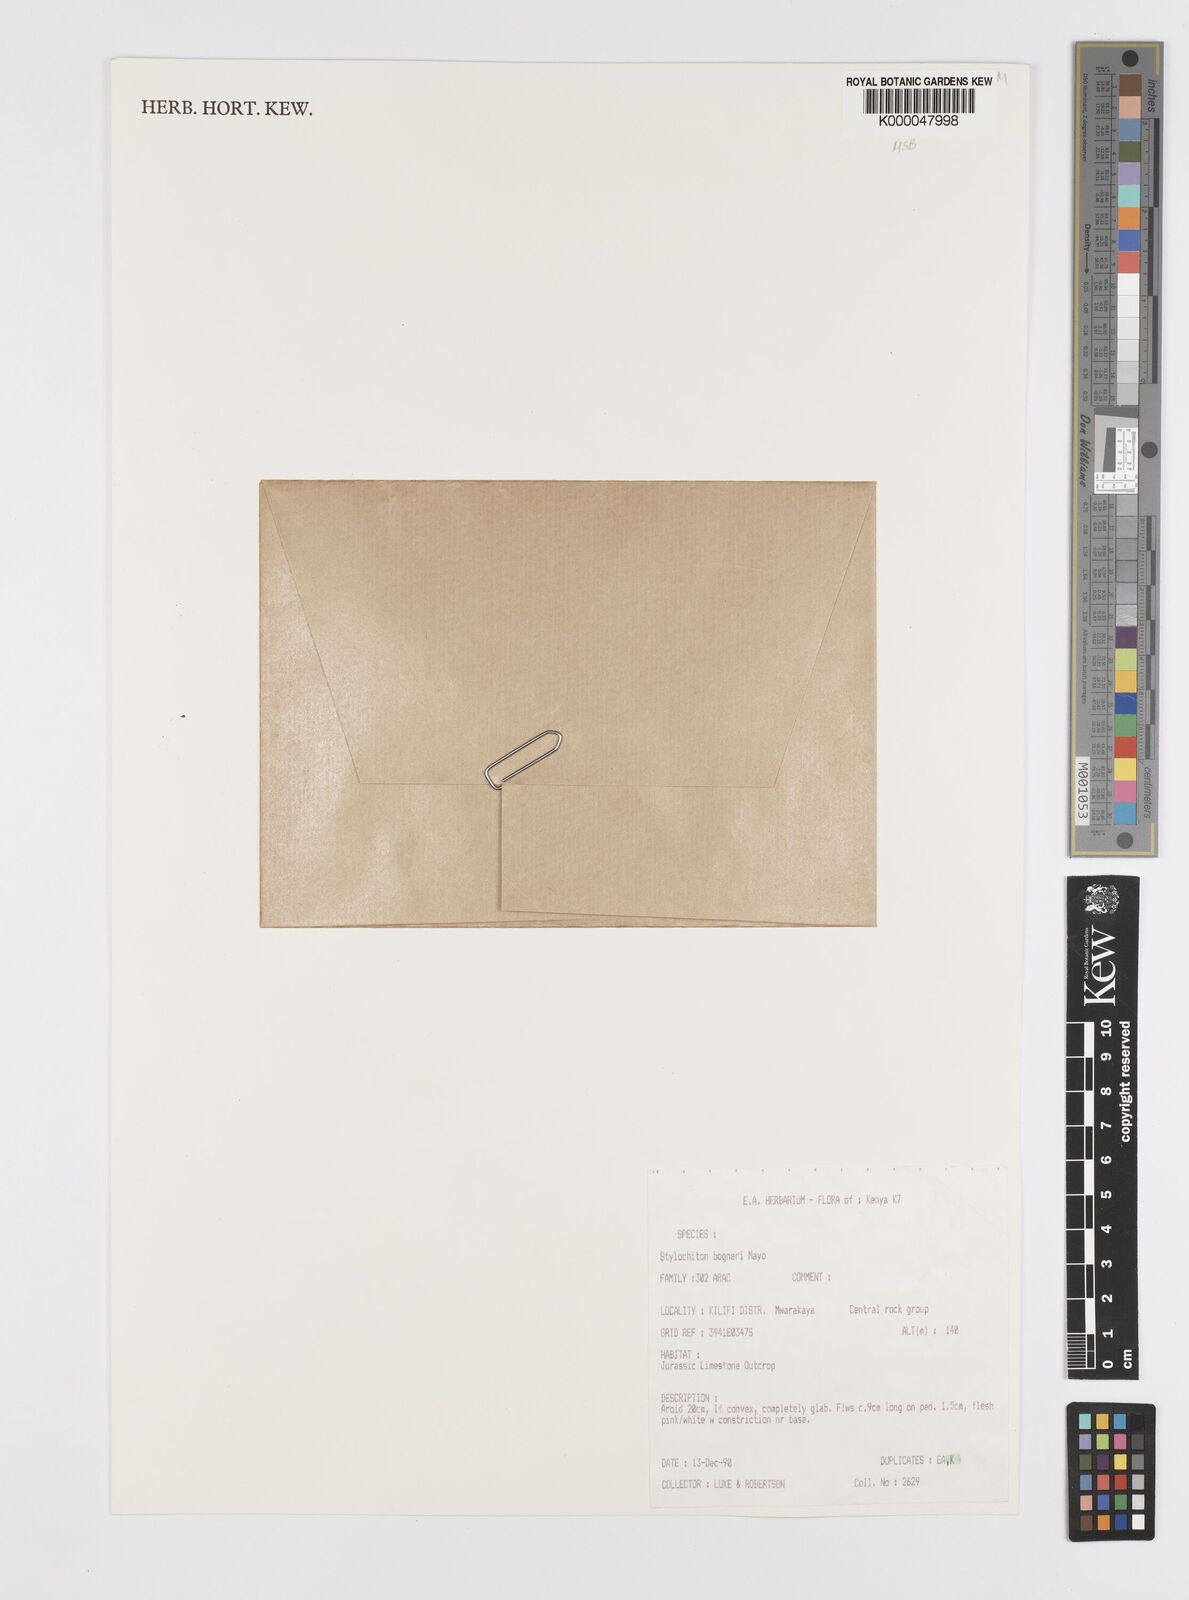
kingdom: Plantae
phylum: Tracheophyta
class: Liliopsida
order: Alismatales
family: Araceae
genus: Stylochaeton
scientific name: Stylochaeton bogneri
